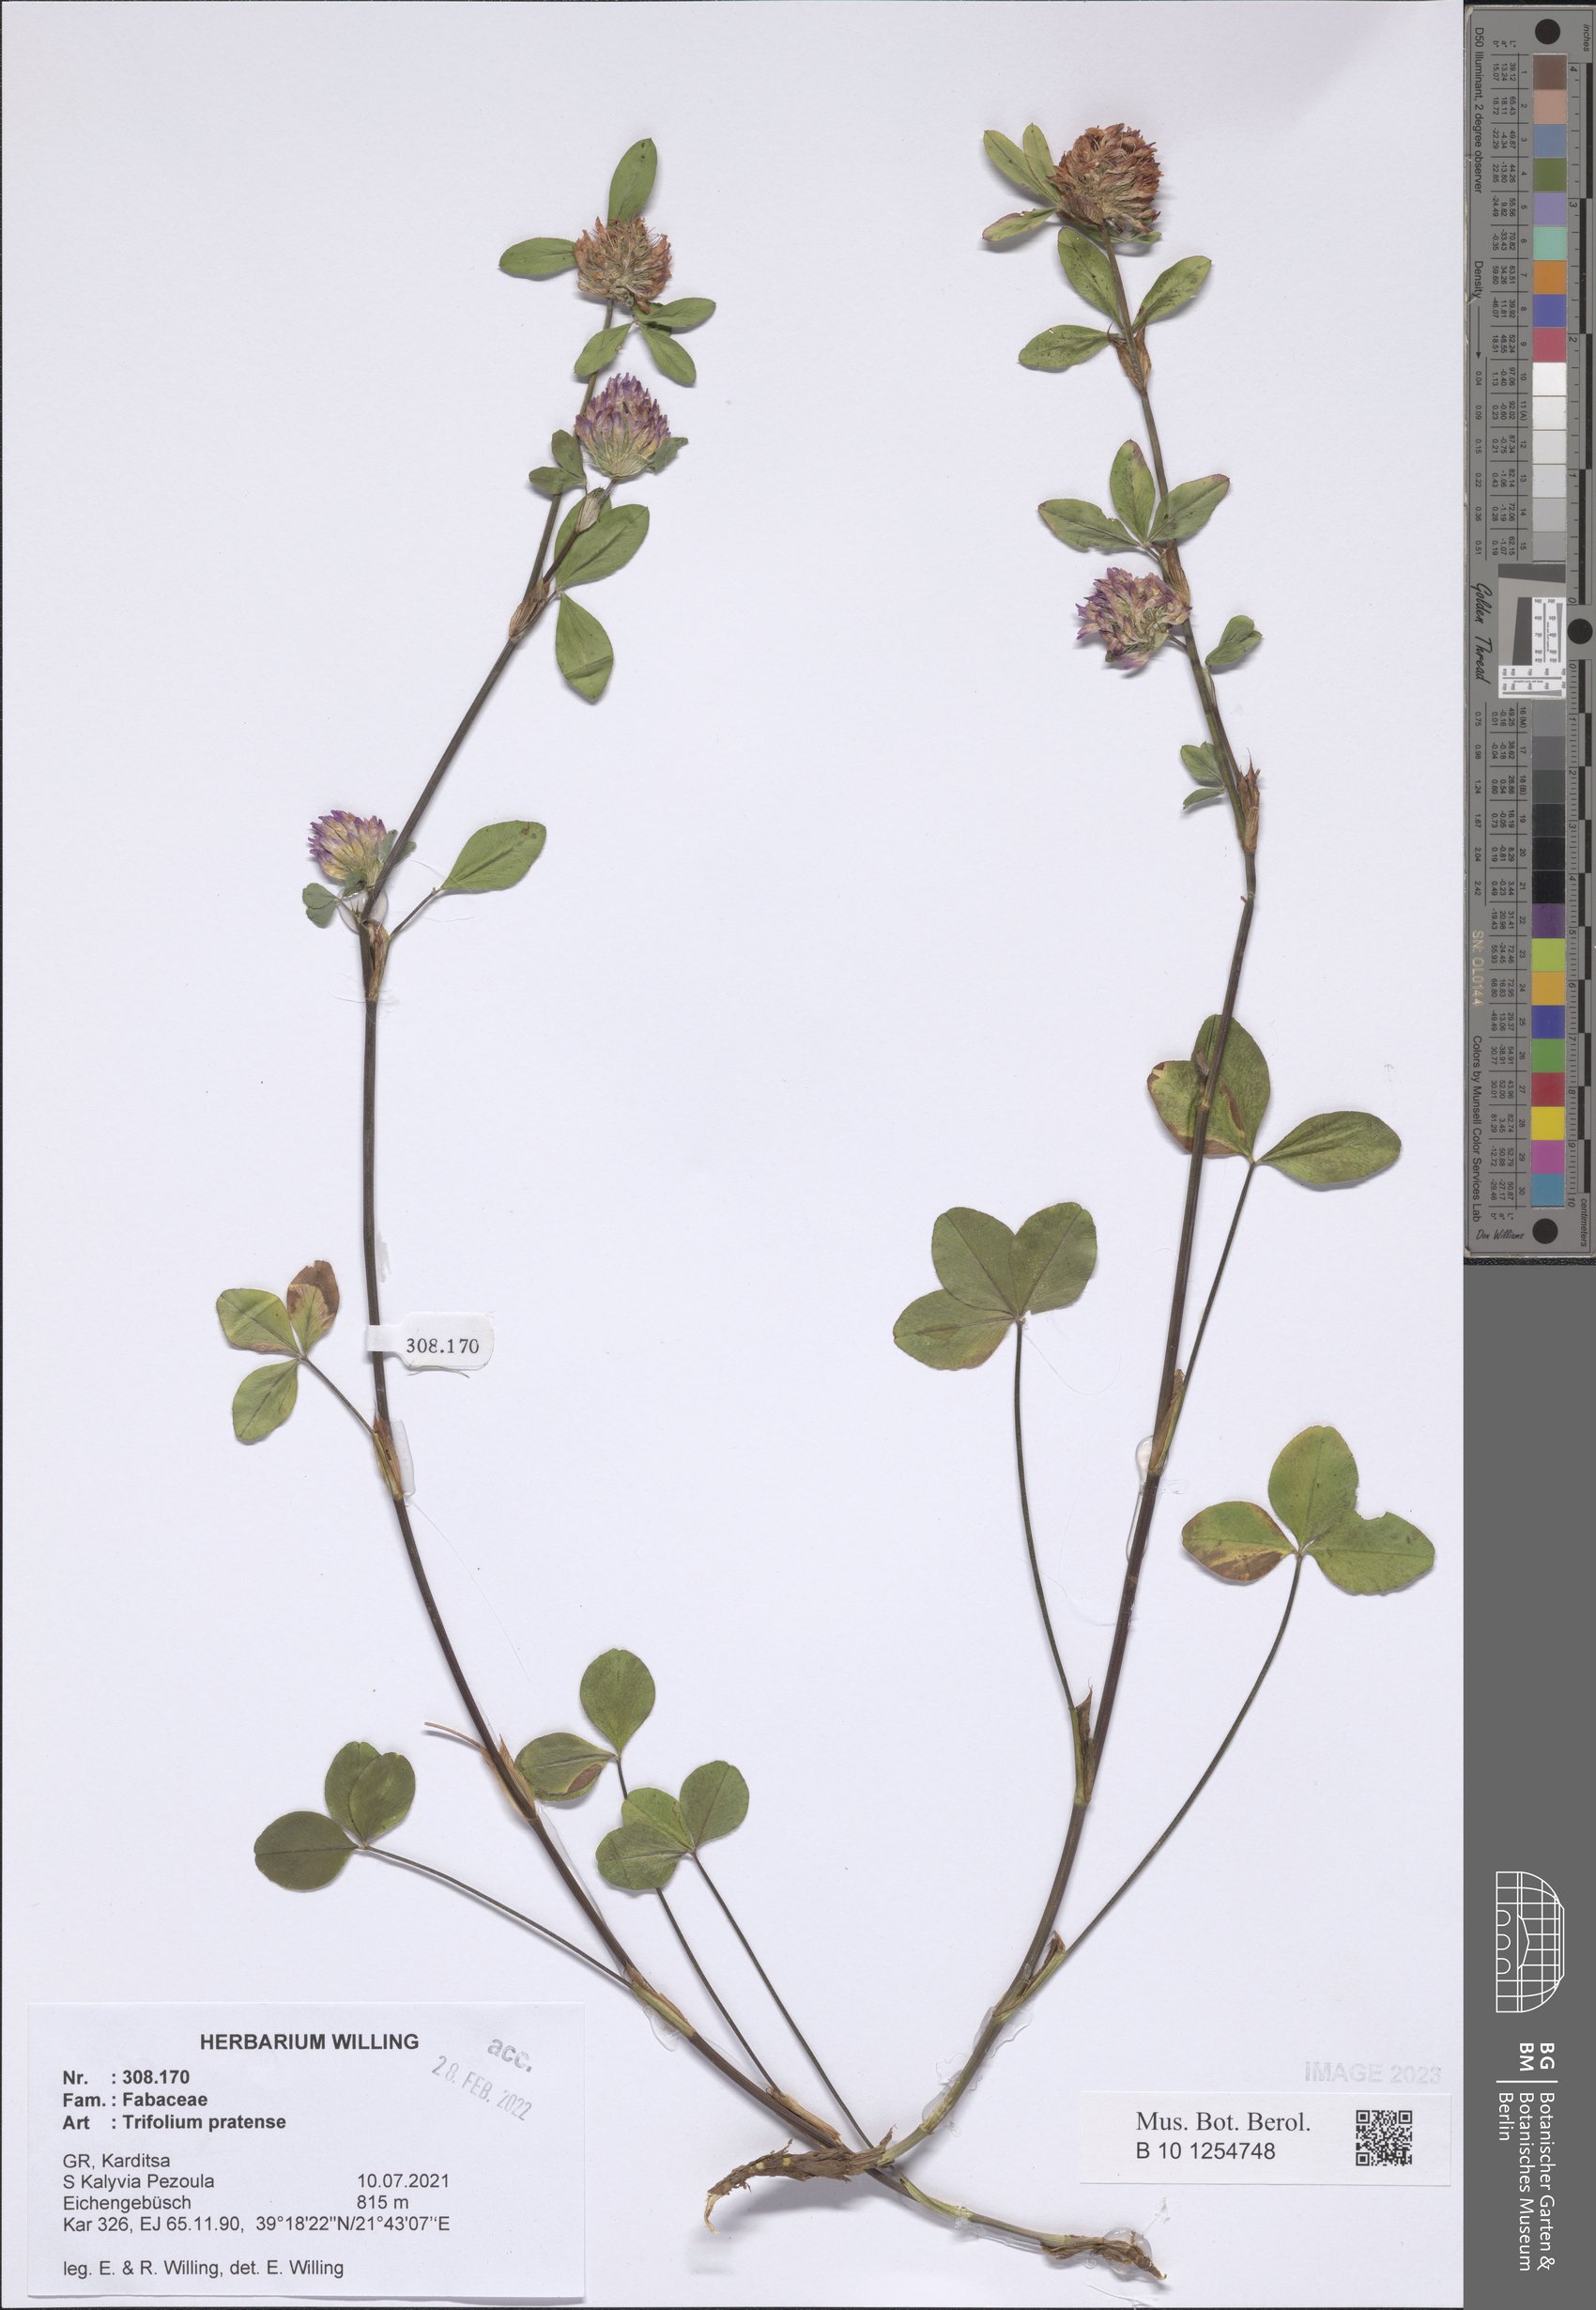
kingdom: Plantae
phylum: Tracheophyta
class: Magnoliopsida
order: Fabales
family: Fabaceae
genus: Trifolium
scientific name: Trifolium pratense
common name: Red clover
